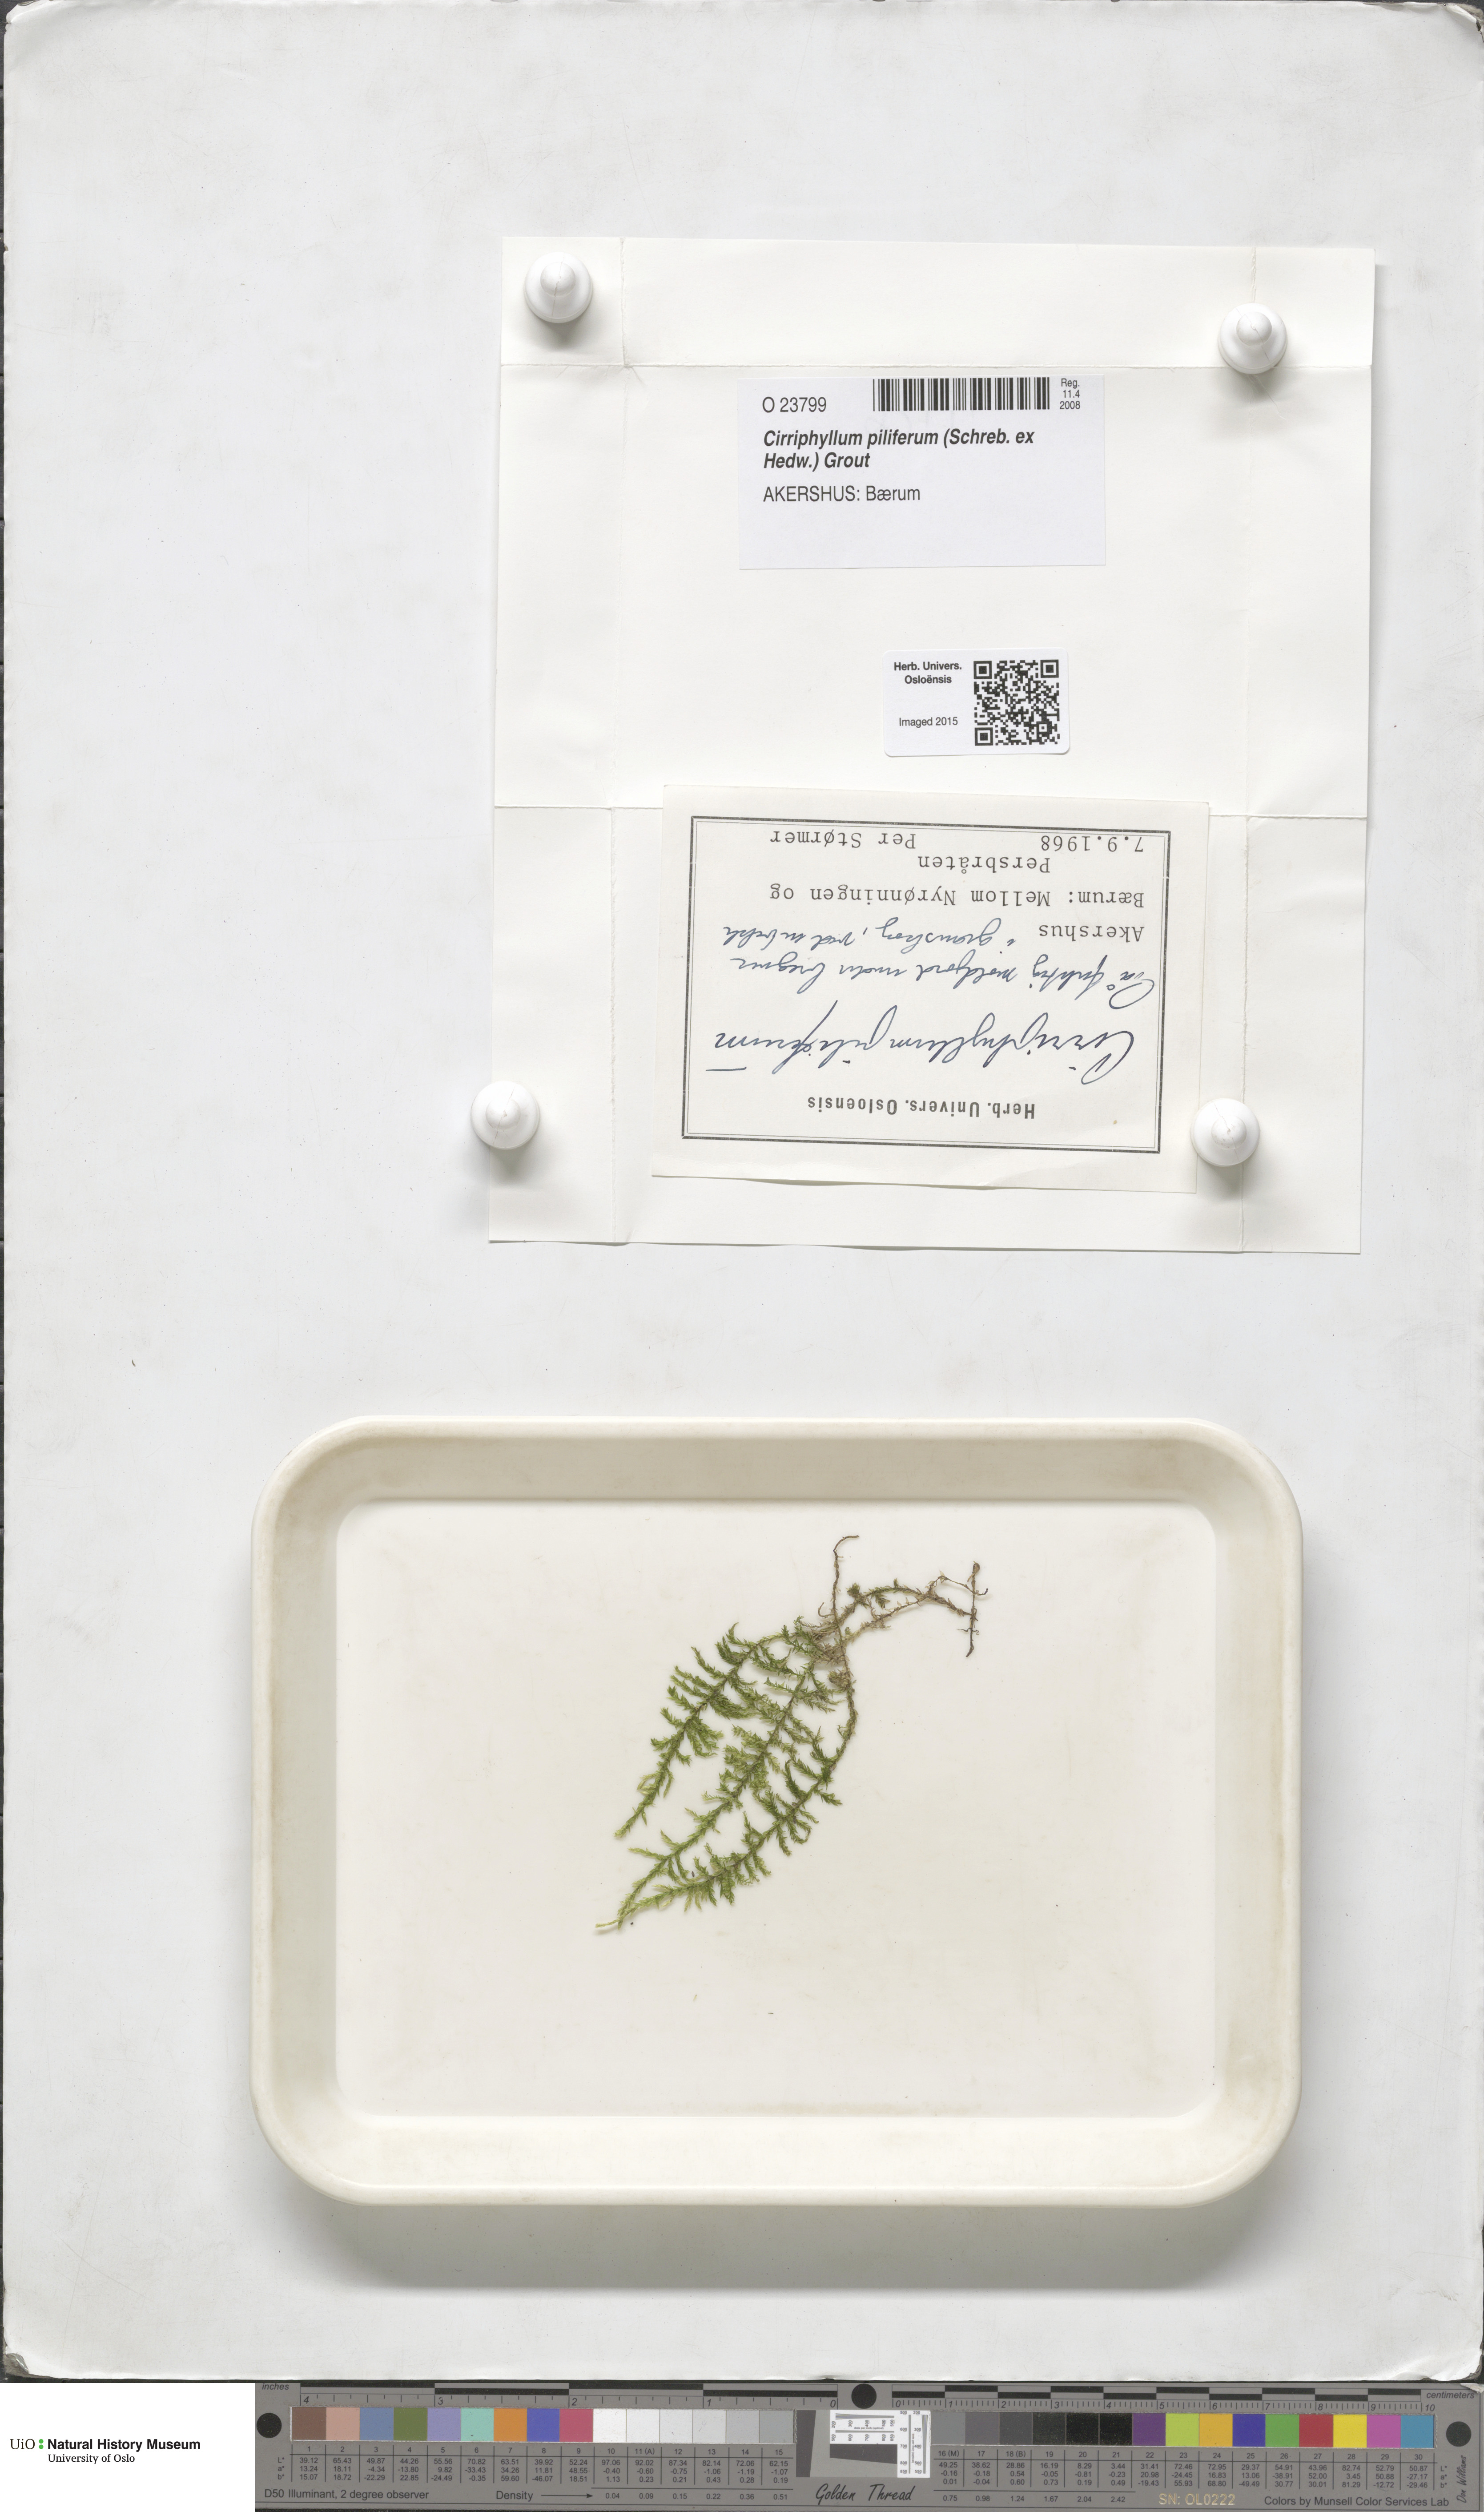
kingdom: Plantae
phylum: Bryophyta
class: Bryopsida
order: Hypnales
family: Brachytheciaceae
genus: Cirriphyllum
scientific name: Cirriphyllum piliferum
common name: Hair-pointed moss
